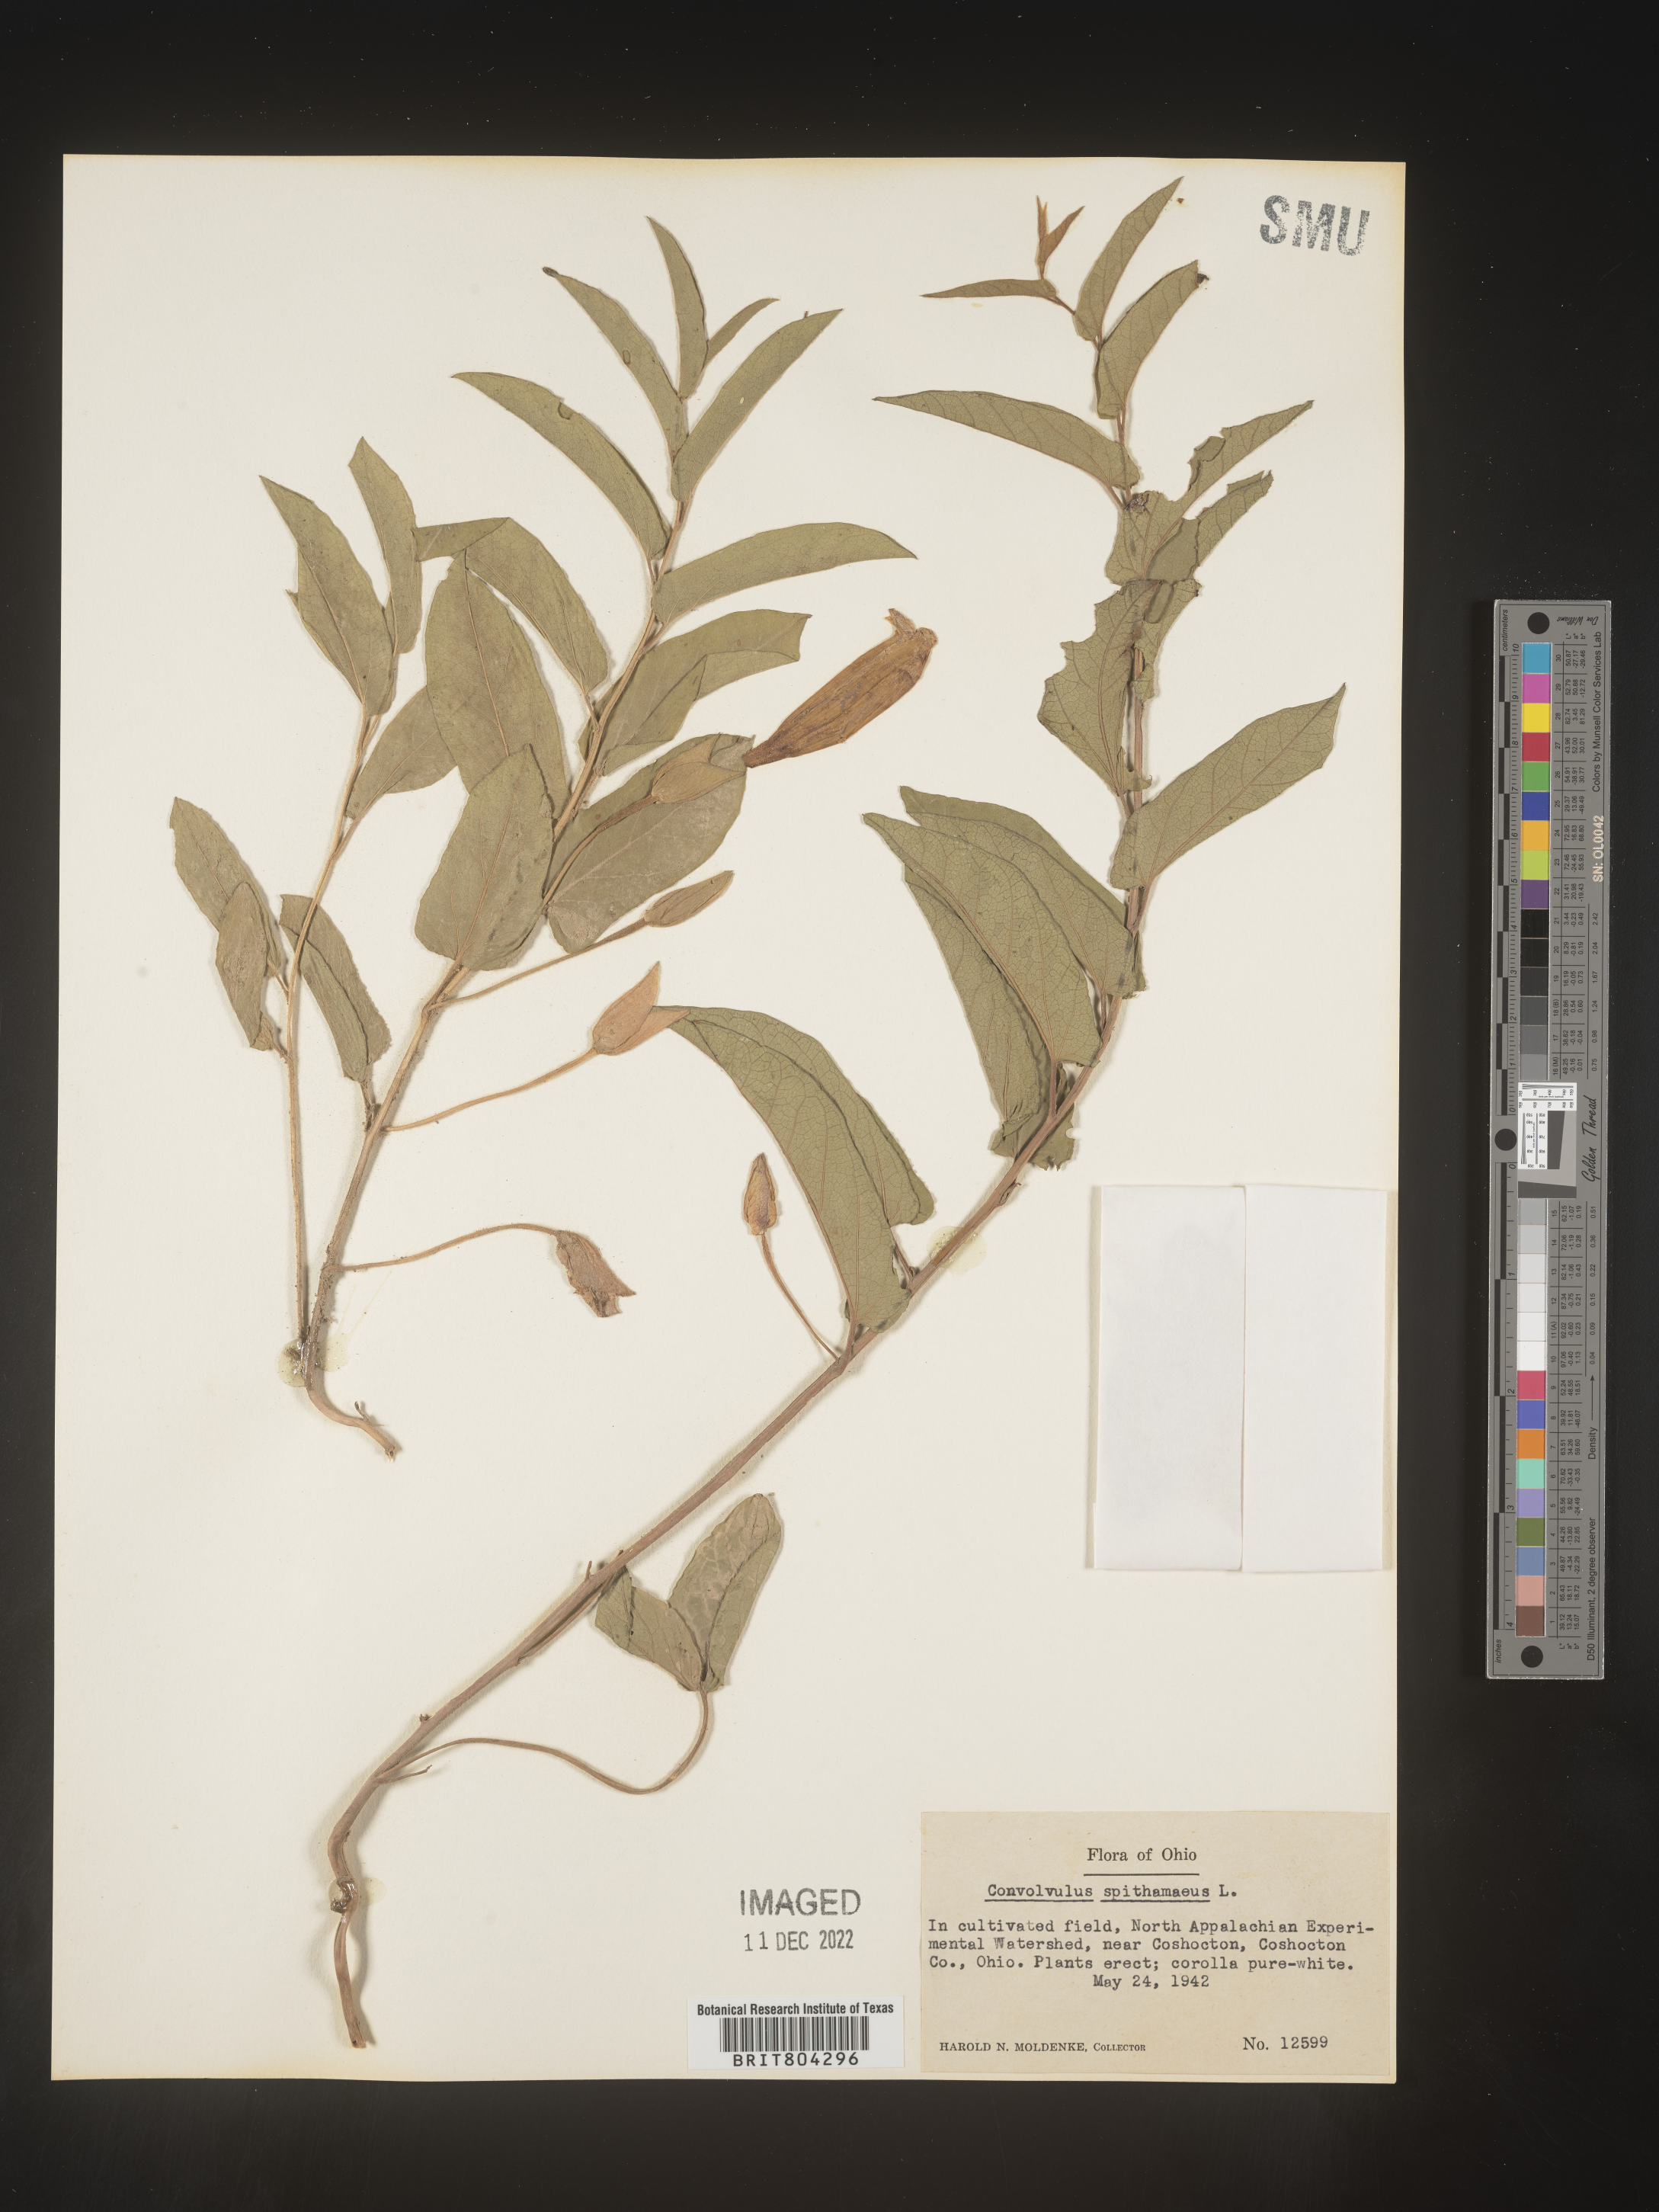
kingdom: Plantae
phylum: Tracheophyta
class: Magnoliopsida
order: Solanales
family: Convolvulaceae
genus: Calystegia
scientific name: Calystegia
